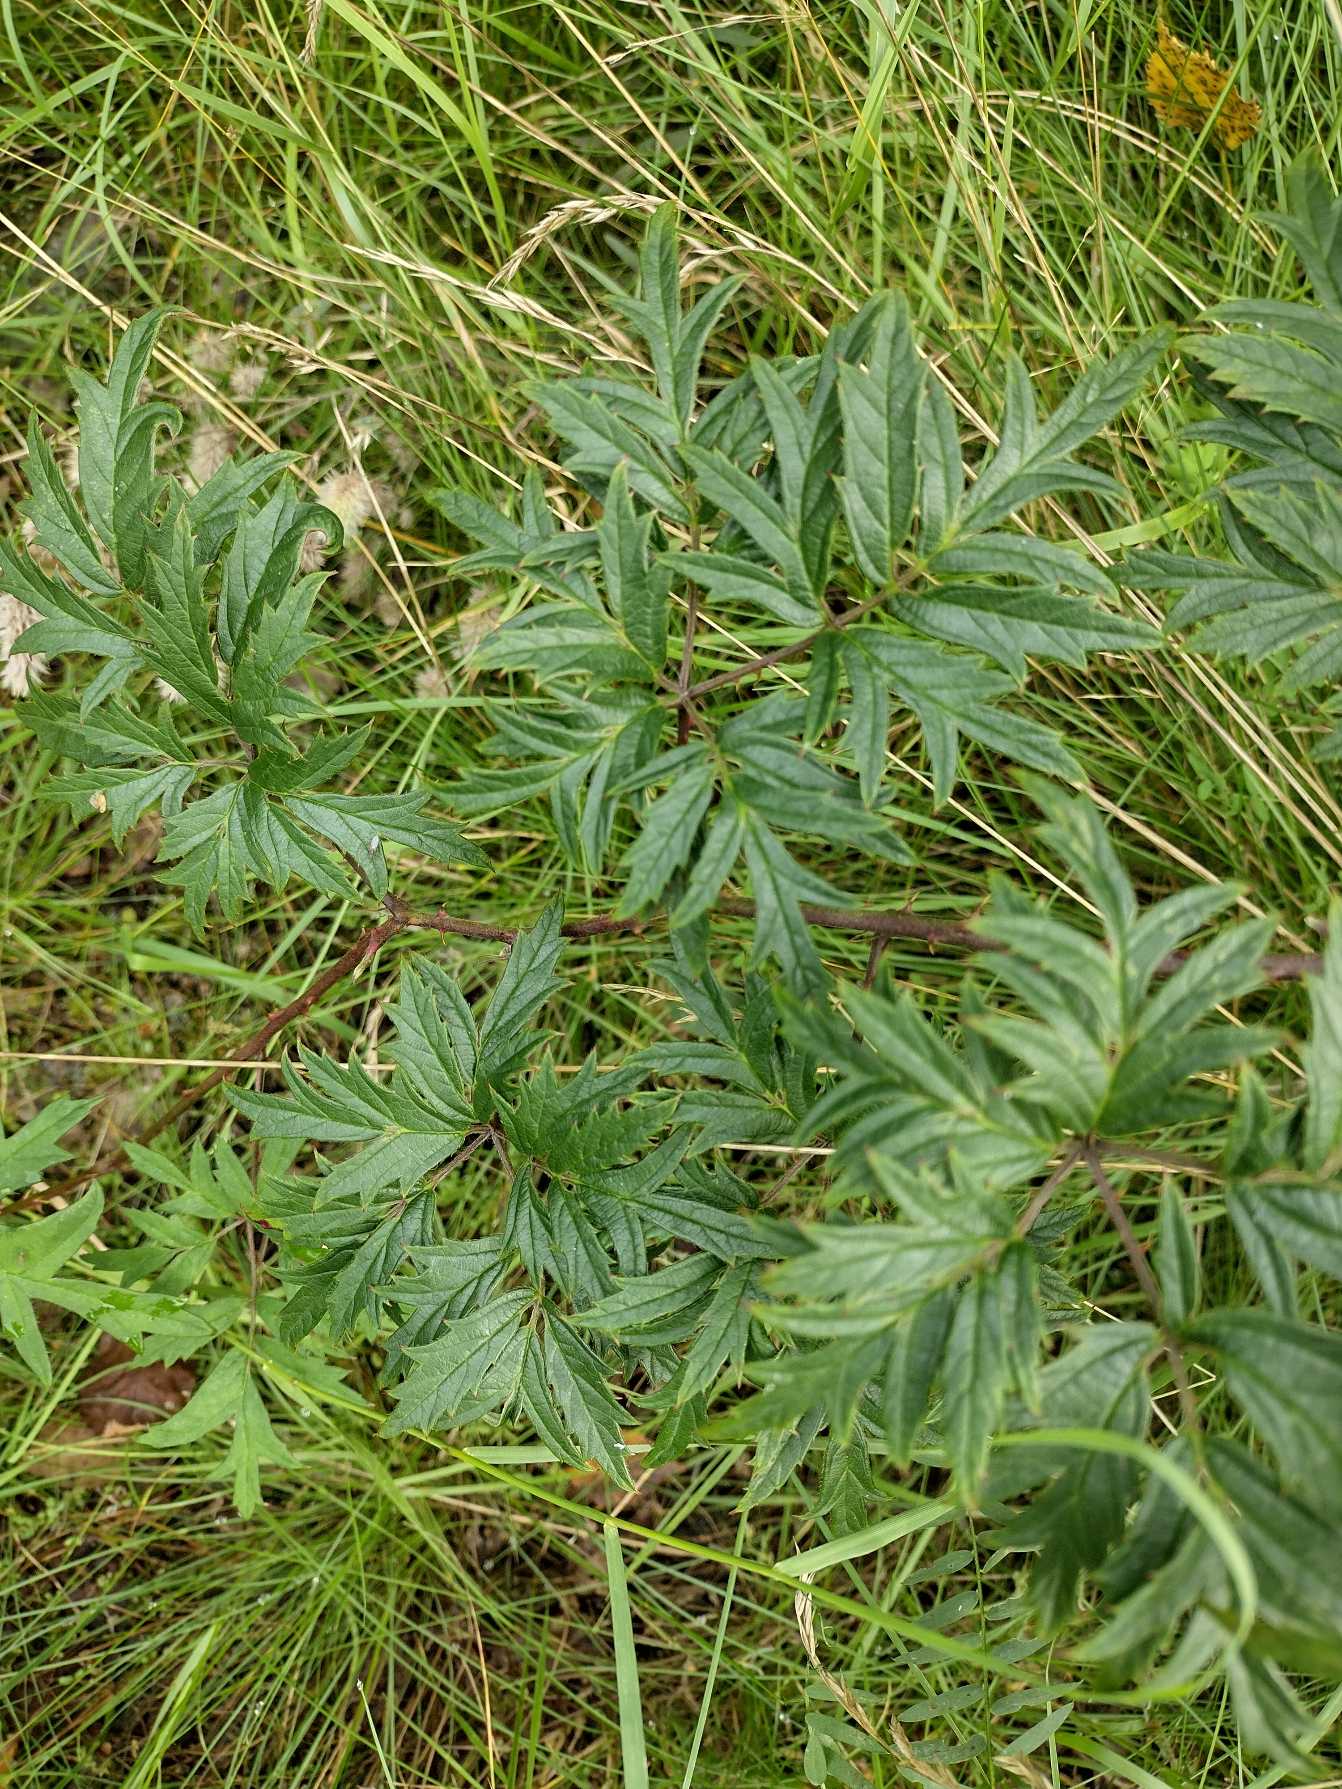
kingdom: Plantae
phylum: Tracheophyta
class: Magnoliopsida
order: Rosales
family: Rosaceae
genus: Rubus
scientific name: Rubus laciniatus
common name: Fliget brombær
